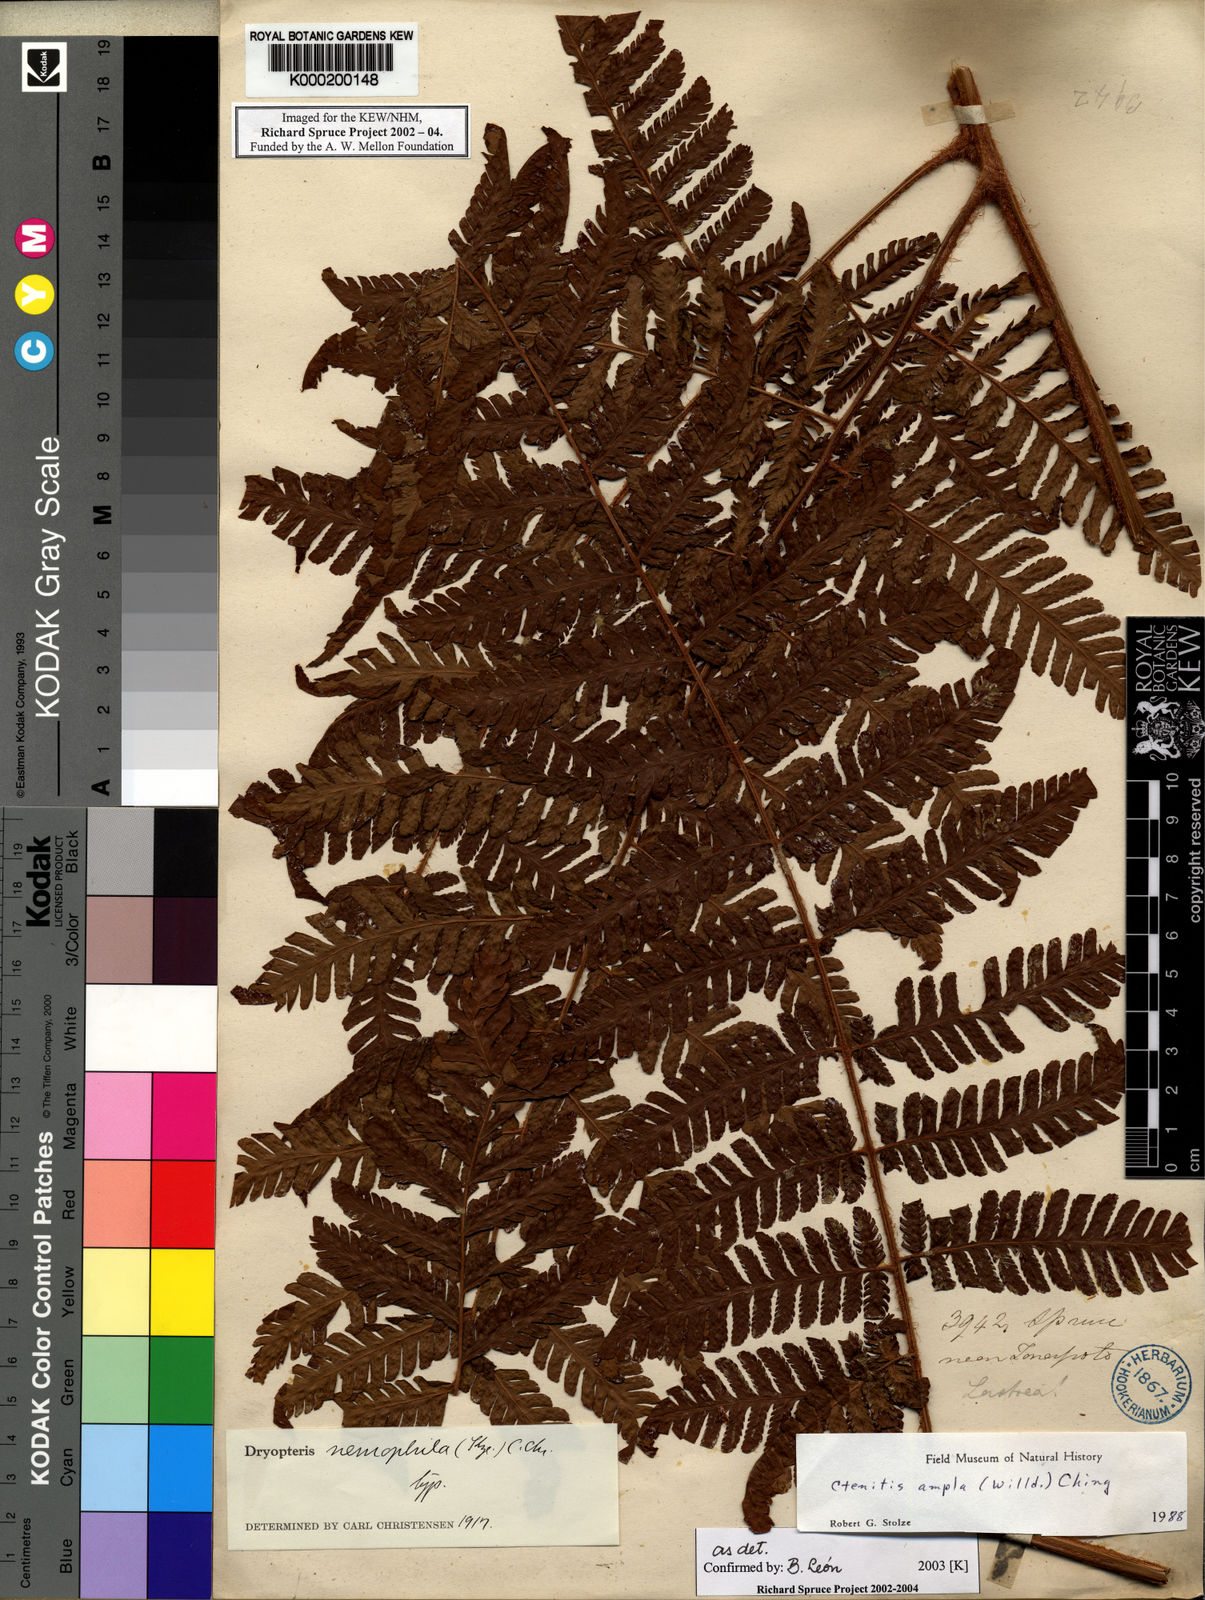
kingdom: Plantae
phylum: Tracheophyta
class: Polypodiopsida
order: Polypodiales
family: Dryopteridaceae
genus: Ctenitis
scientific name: Ctenitis sloanei
